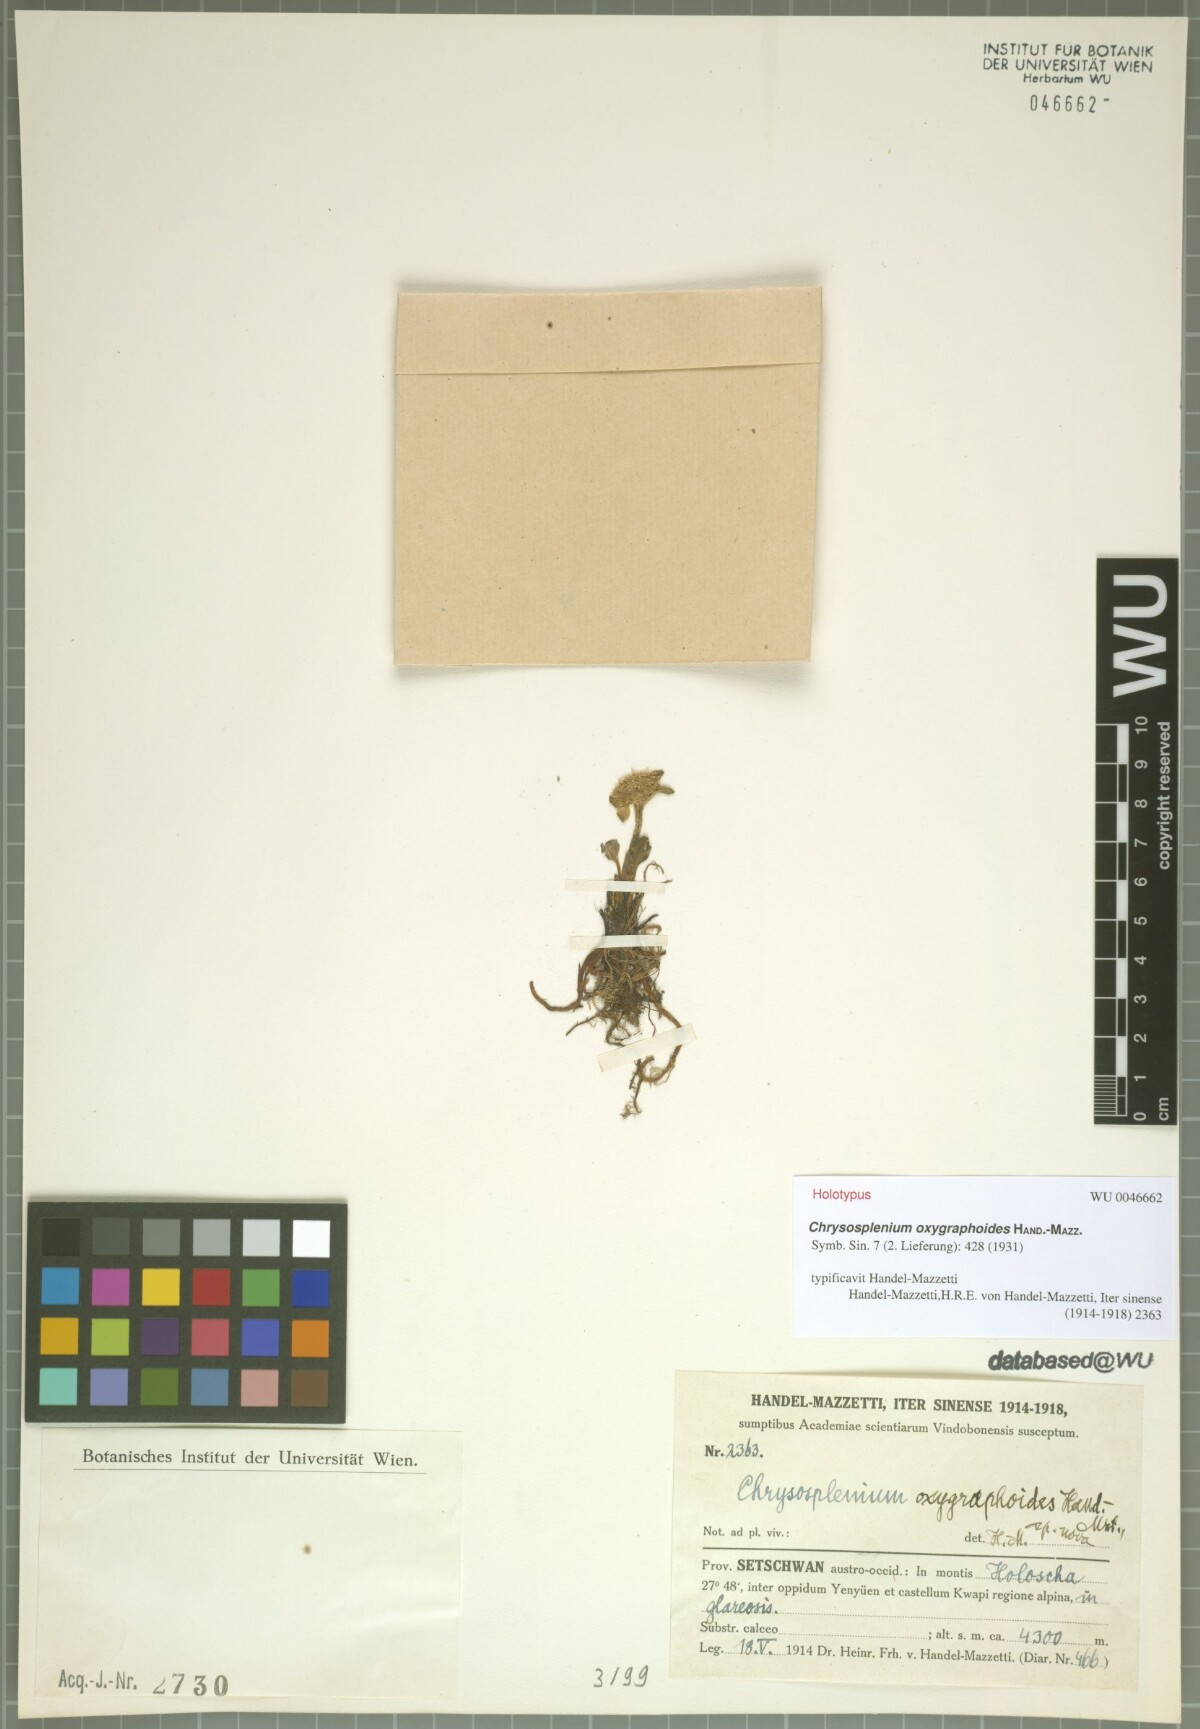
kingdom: Plantae
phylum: Tracheophyta
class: Magnoliopsida
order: Saxifragales
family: Saxifragaceae
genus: Chrysosplenium
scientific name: Chrysosplenium oxygraphoides
